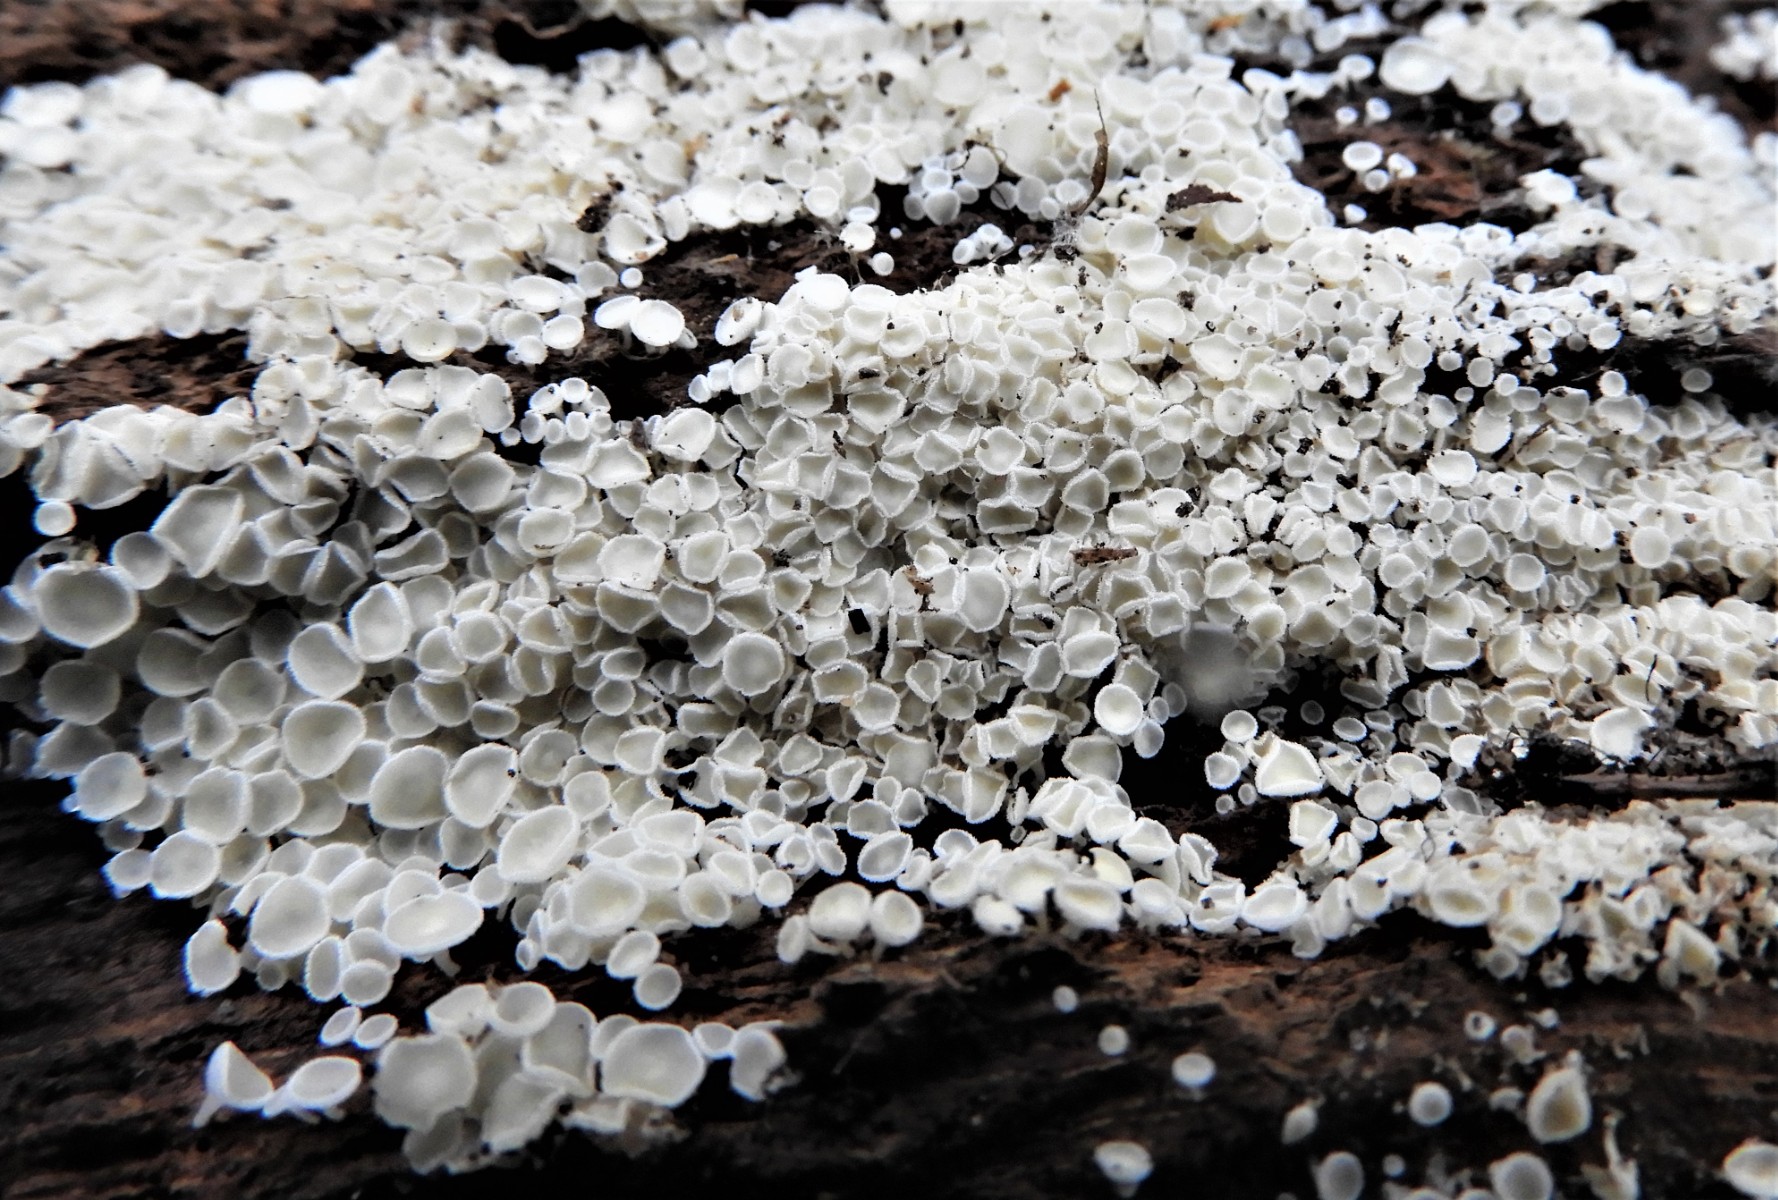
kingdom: Fungi
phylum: Ascomycota
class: Leotiomycetes
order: Helotiales
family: Lachnaceae
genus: Lachnum
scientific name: Lachnum
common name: frynseskive
